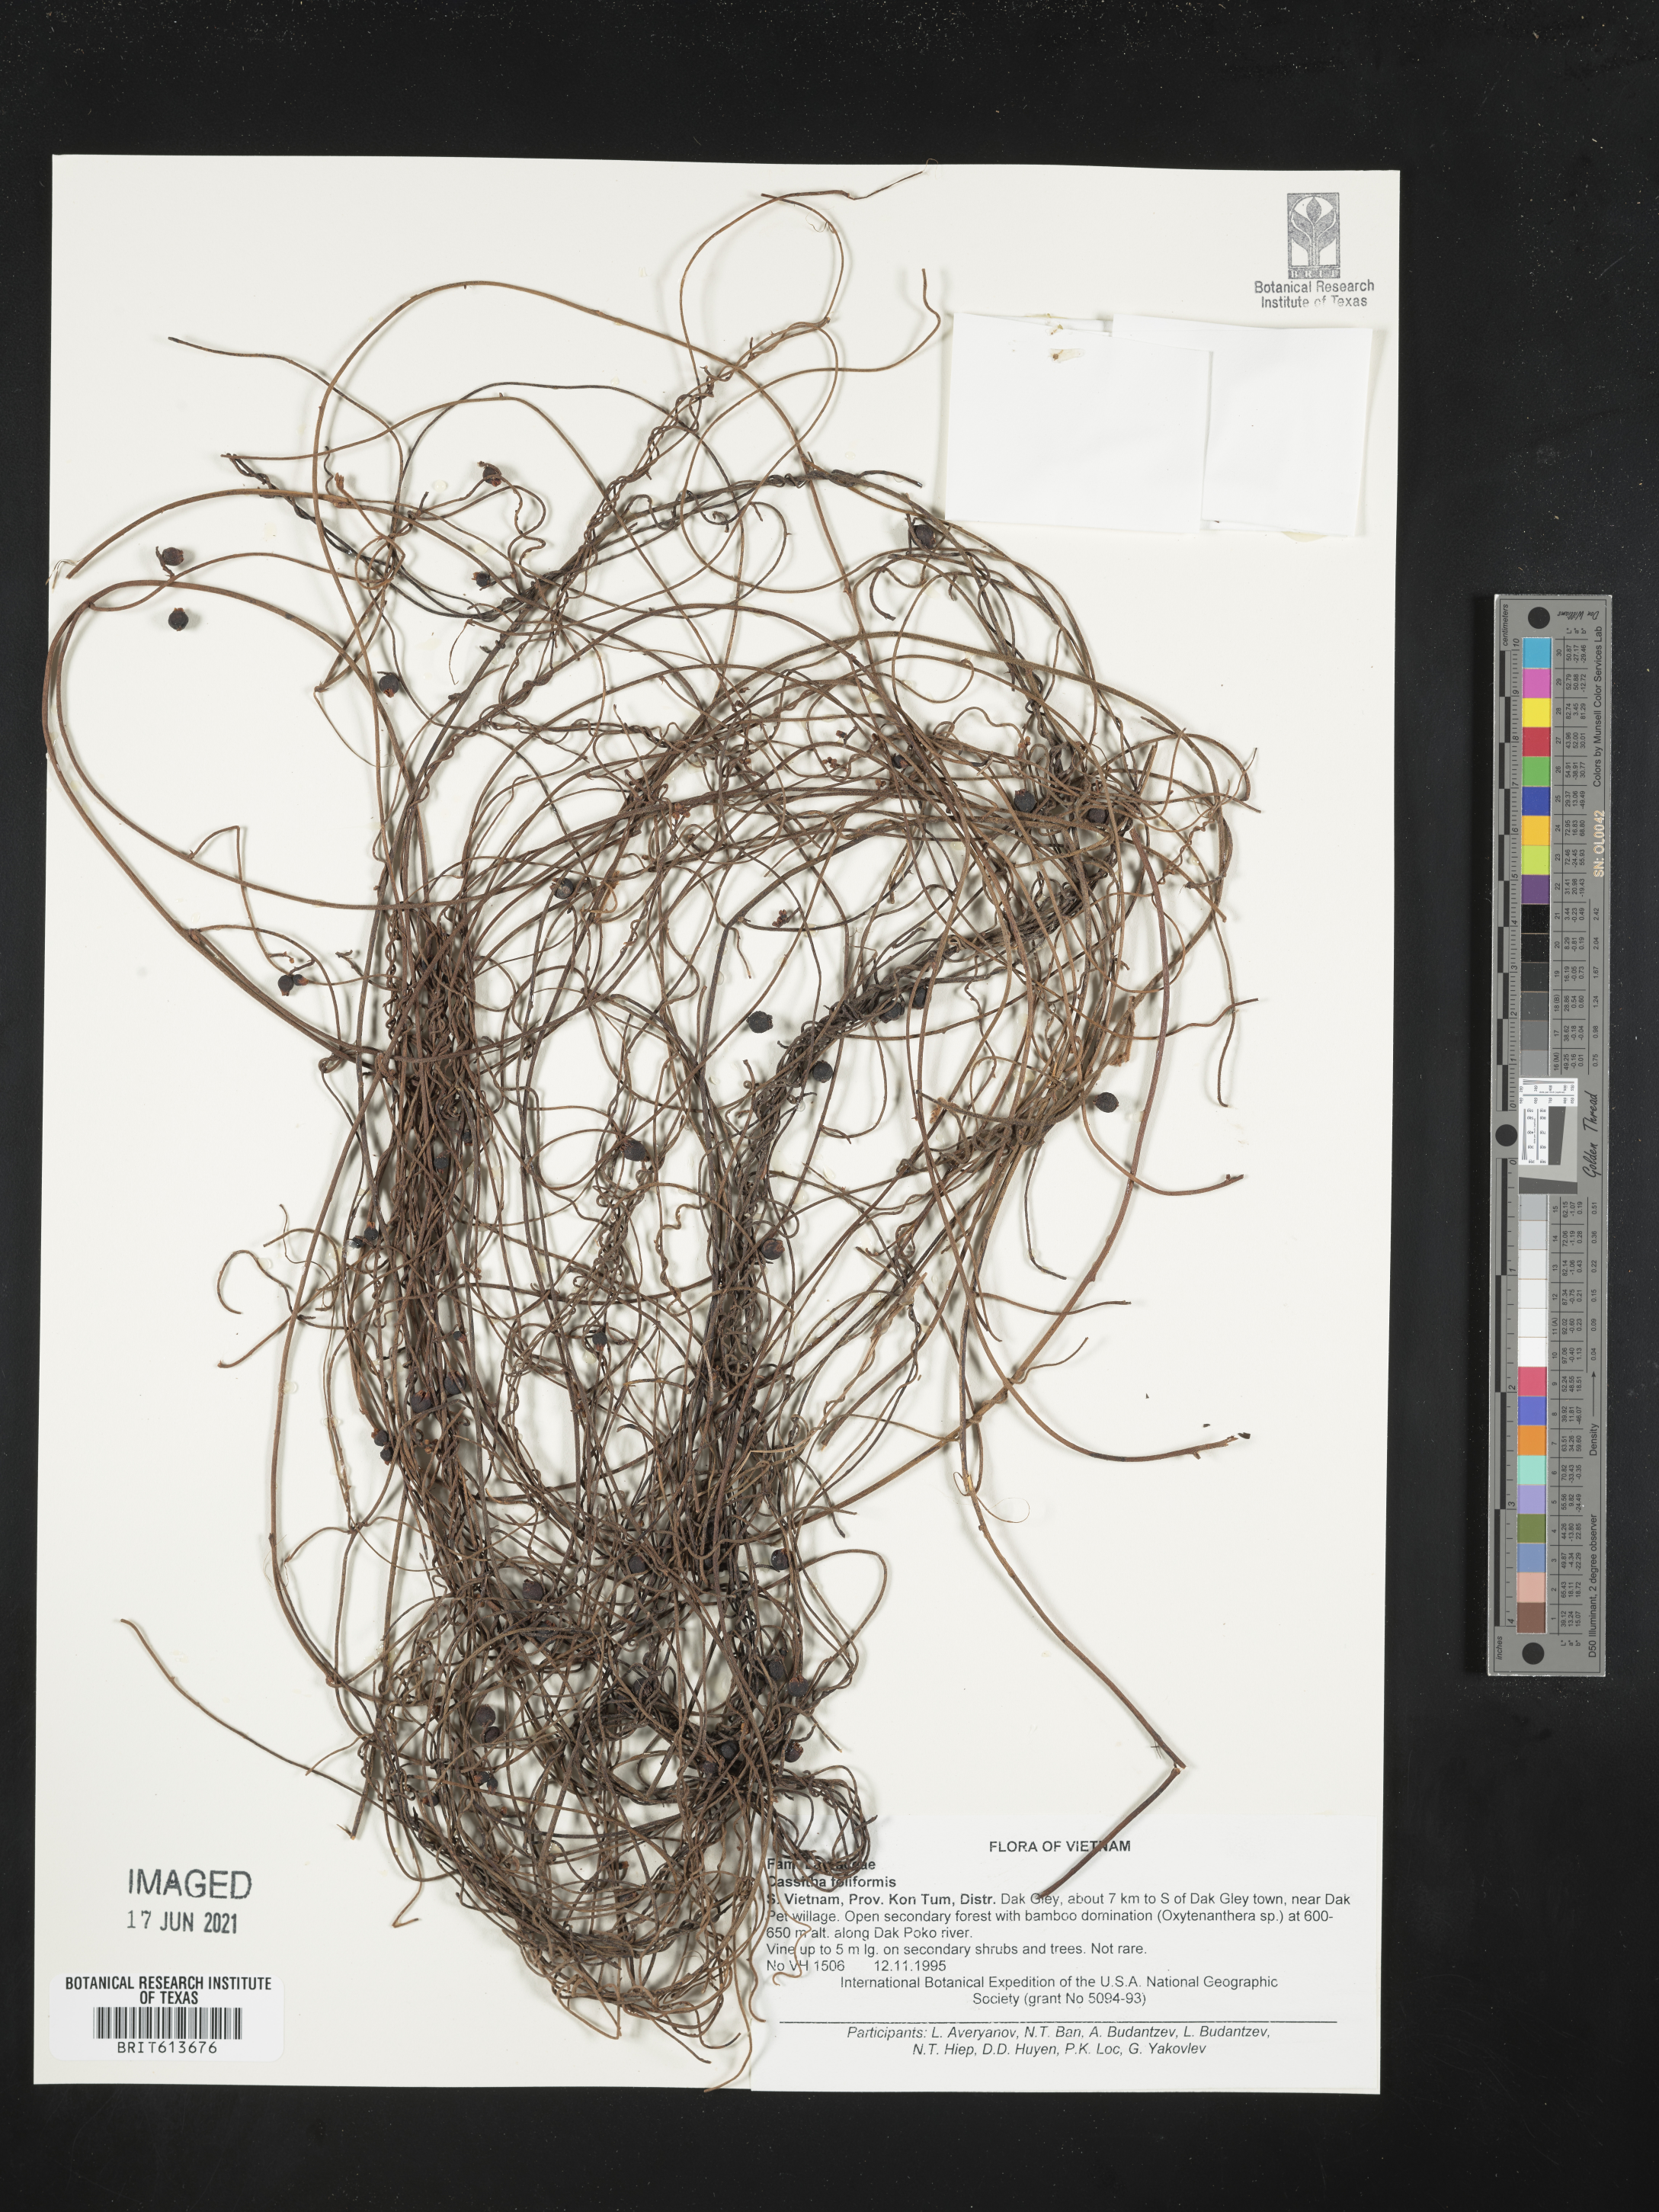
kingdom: Plantae
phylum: Tracheophyta
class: Magnoliopsida
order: Laurales
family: Lauraceae
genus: Cassytha
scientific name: Cassytha filiformis
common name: Dodder-laurel
